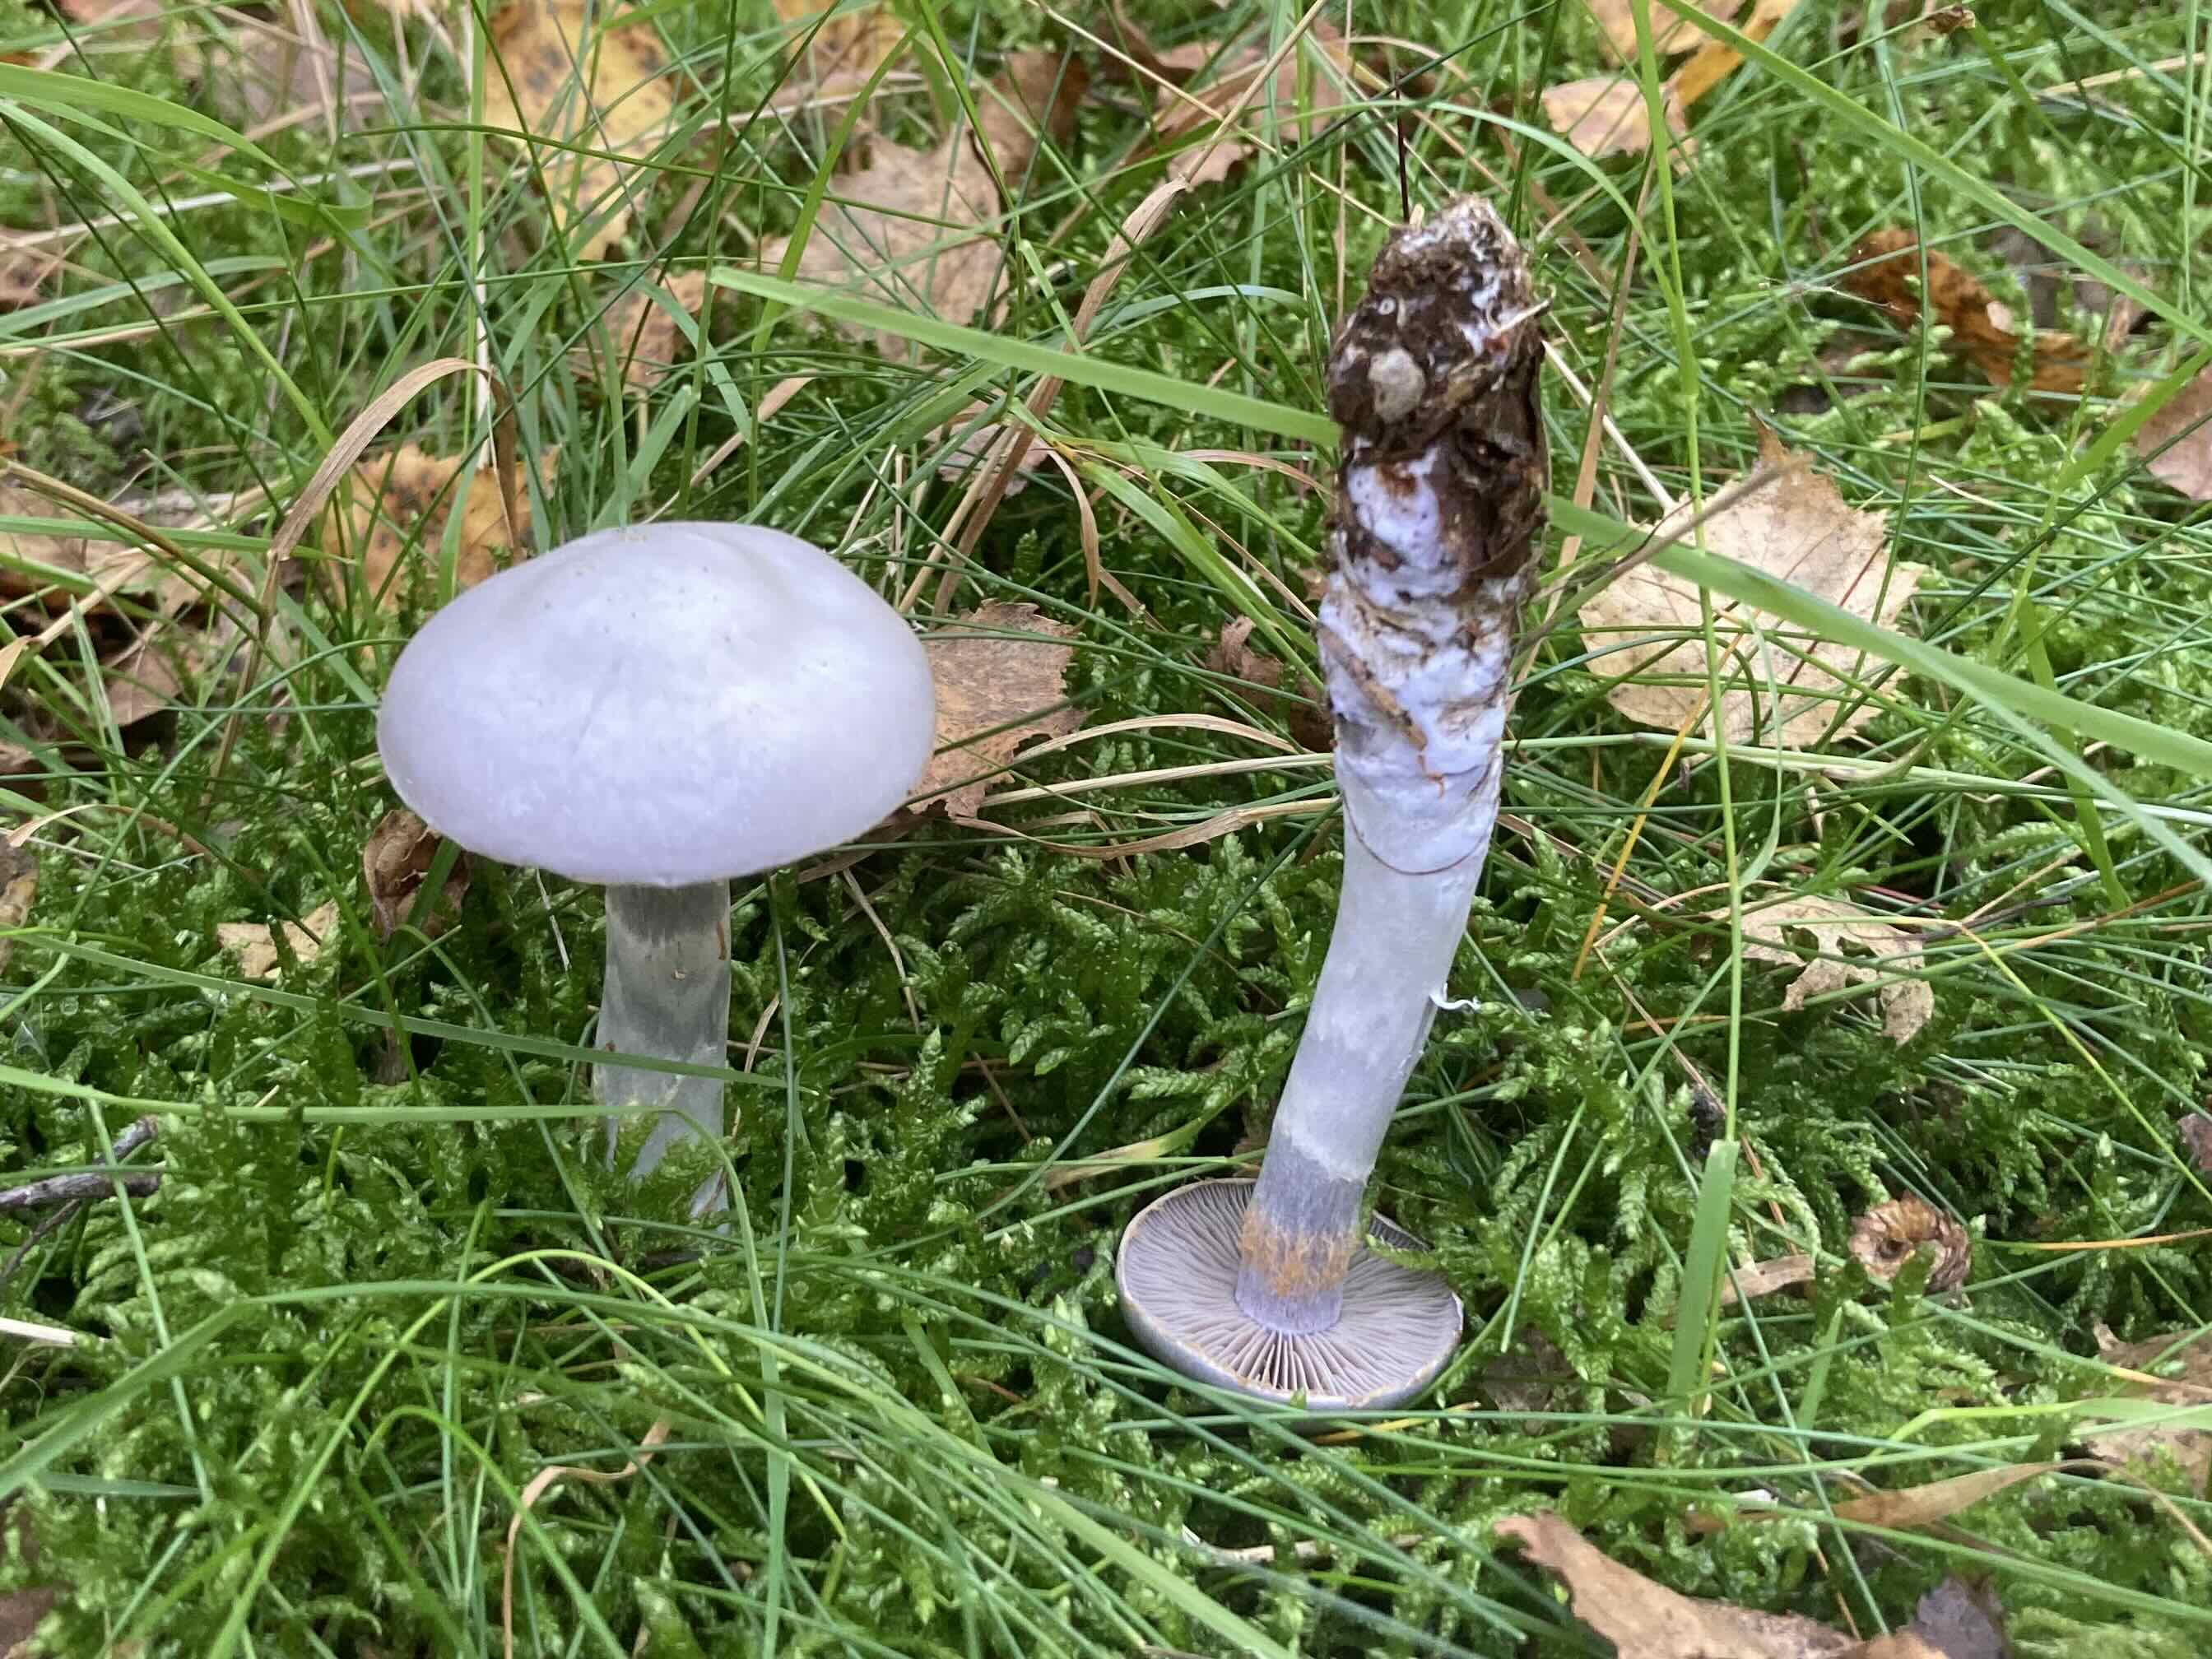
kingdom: Fungi
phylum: Basidiomycota
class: Agaricomycetes
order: Agaricales
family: Cortinariaceae
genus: Cortinarius
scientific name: Cortinarius
